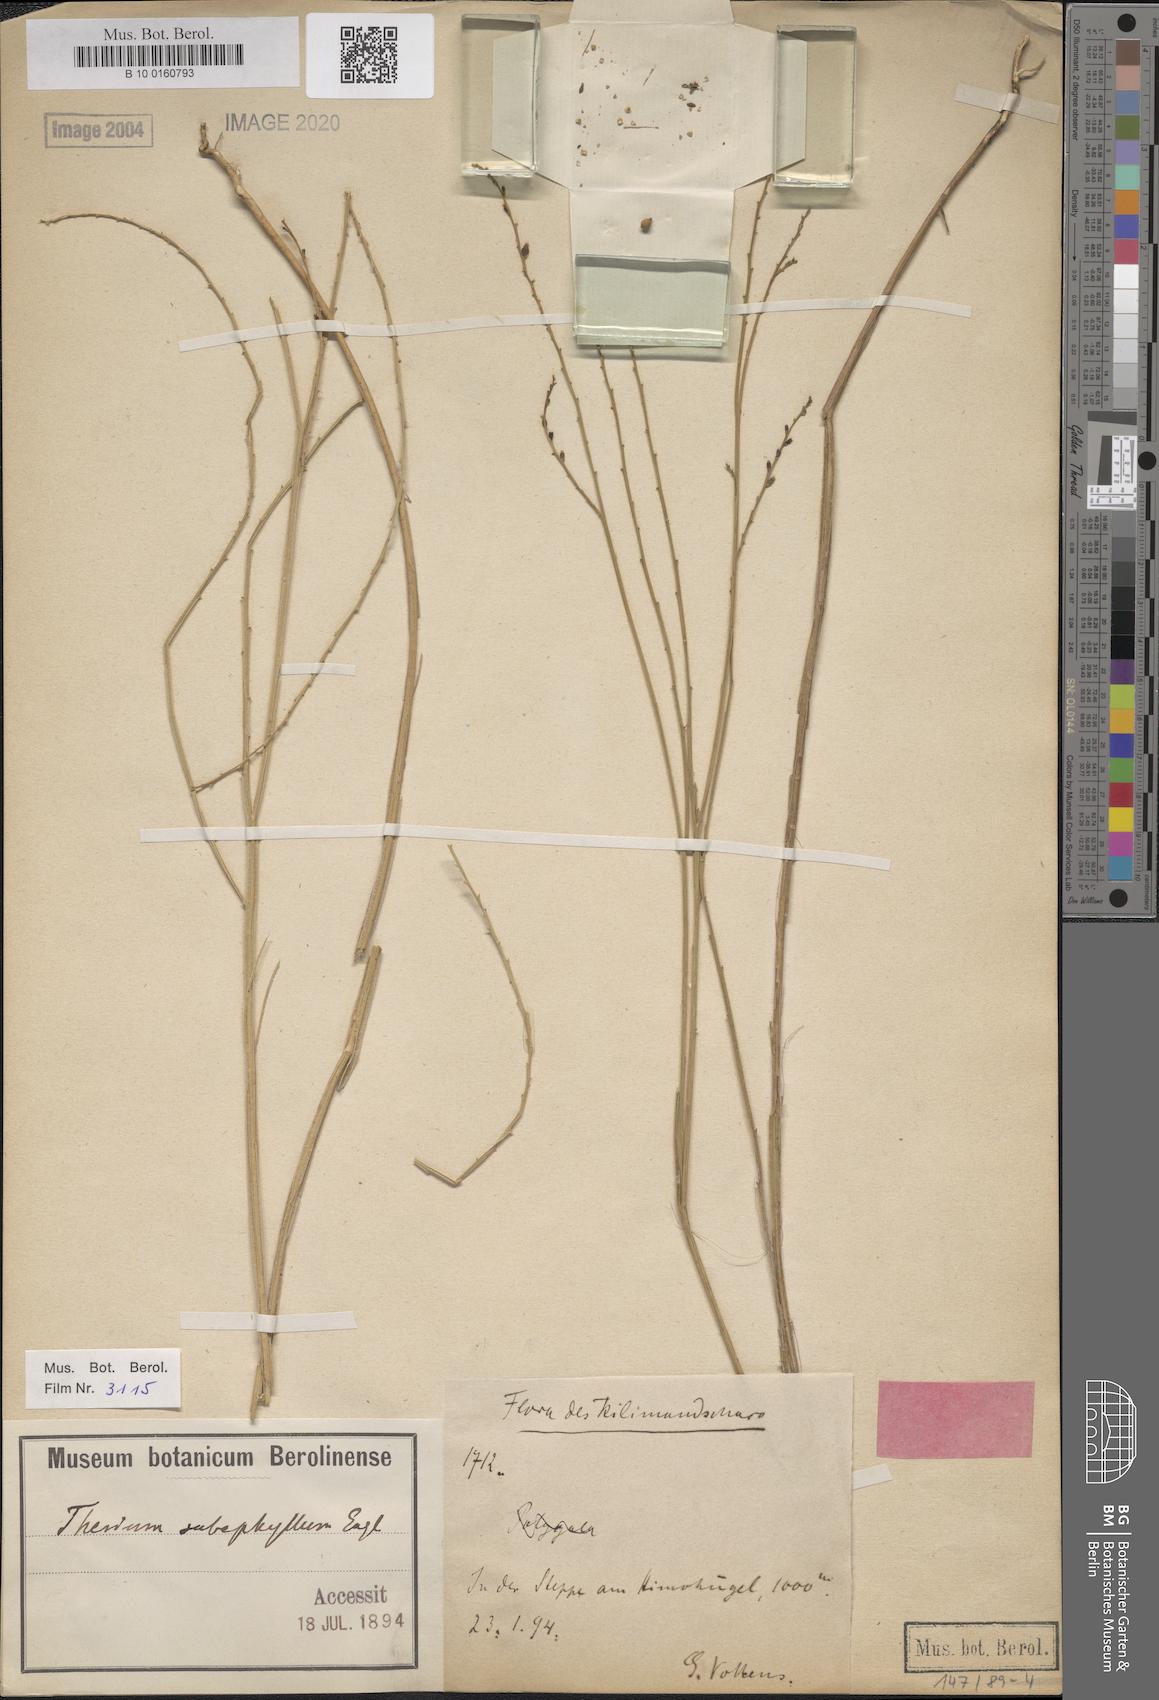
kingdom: Plantae
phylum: Tracheophyta
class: Magnoliopsida
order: Santalales
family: Thesiaceae
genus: Thesium
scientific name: Thesium subaphyllum
